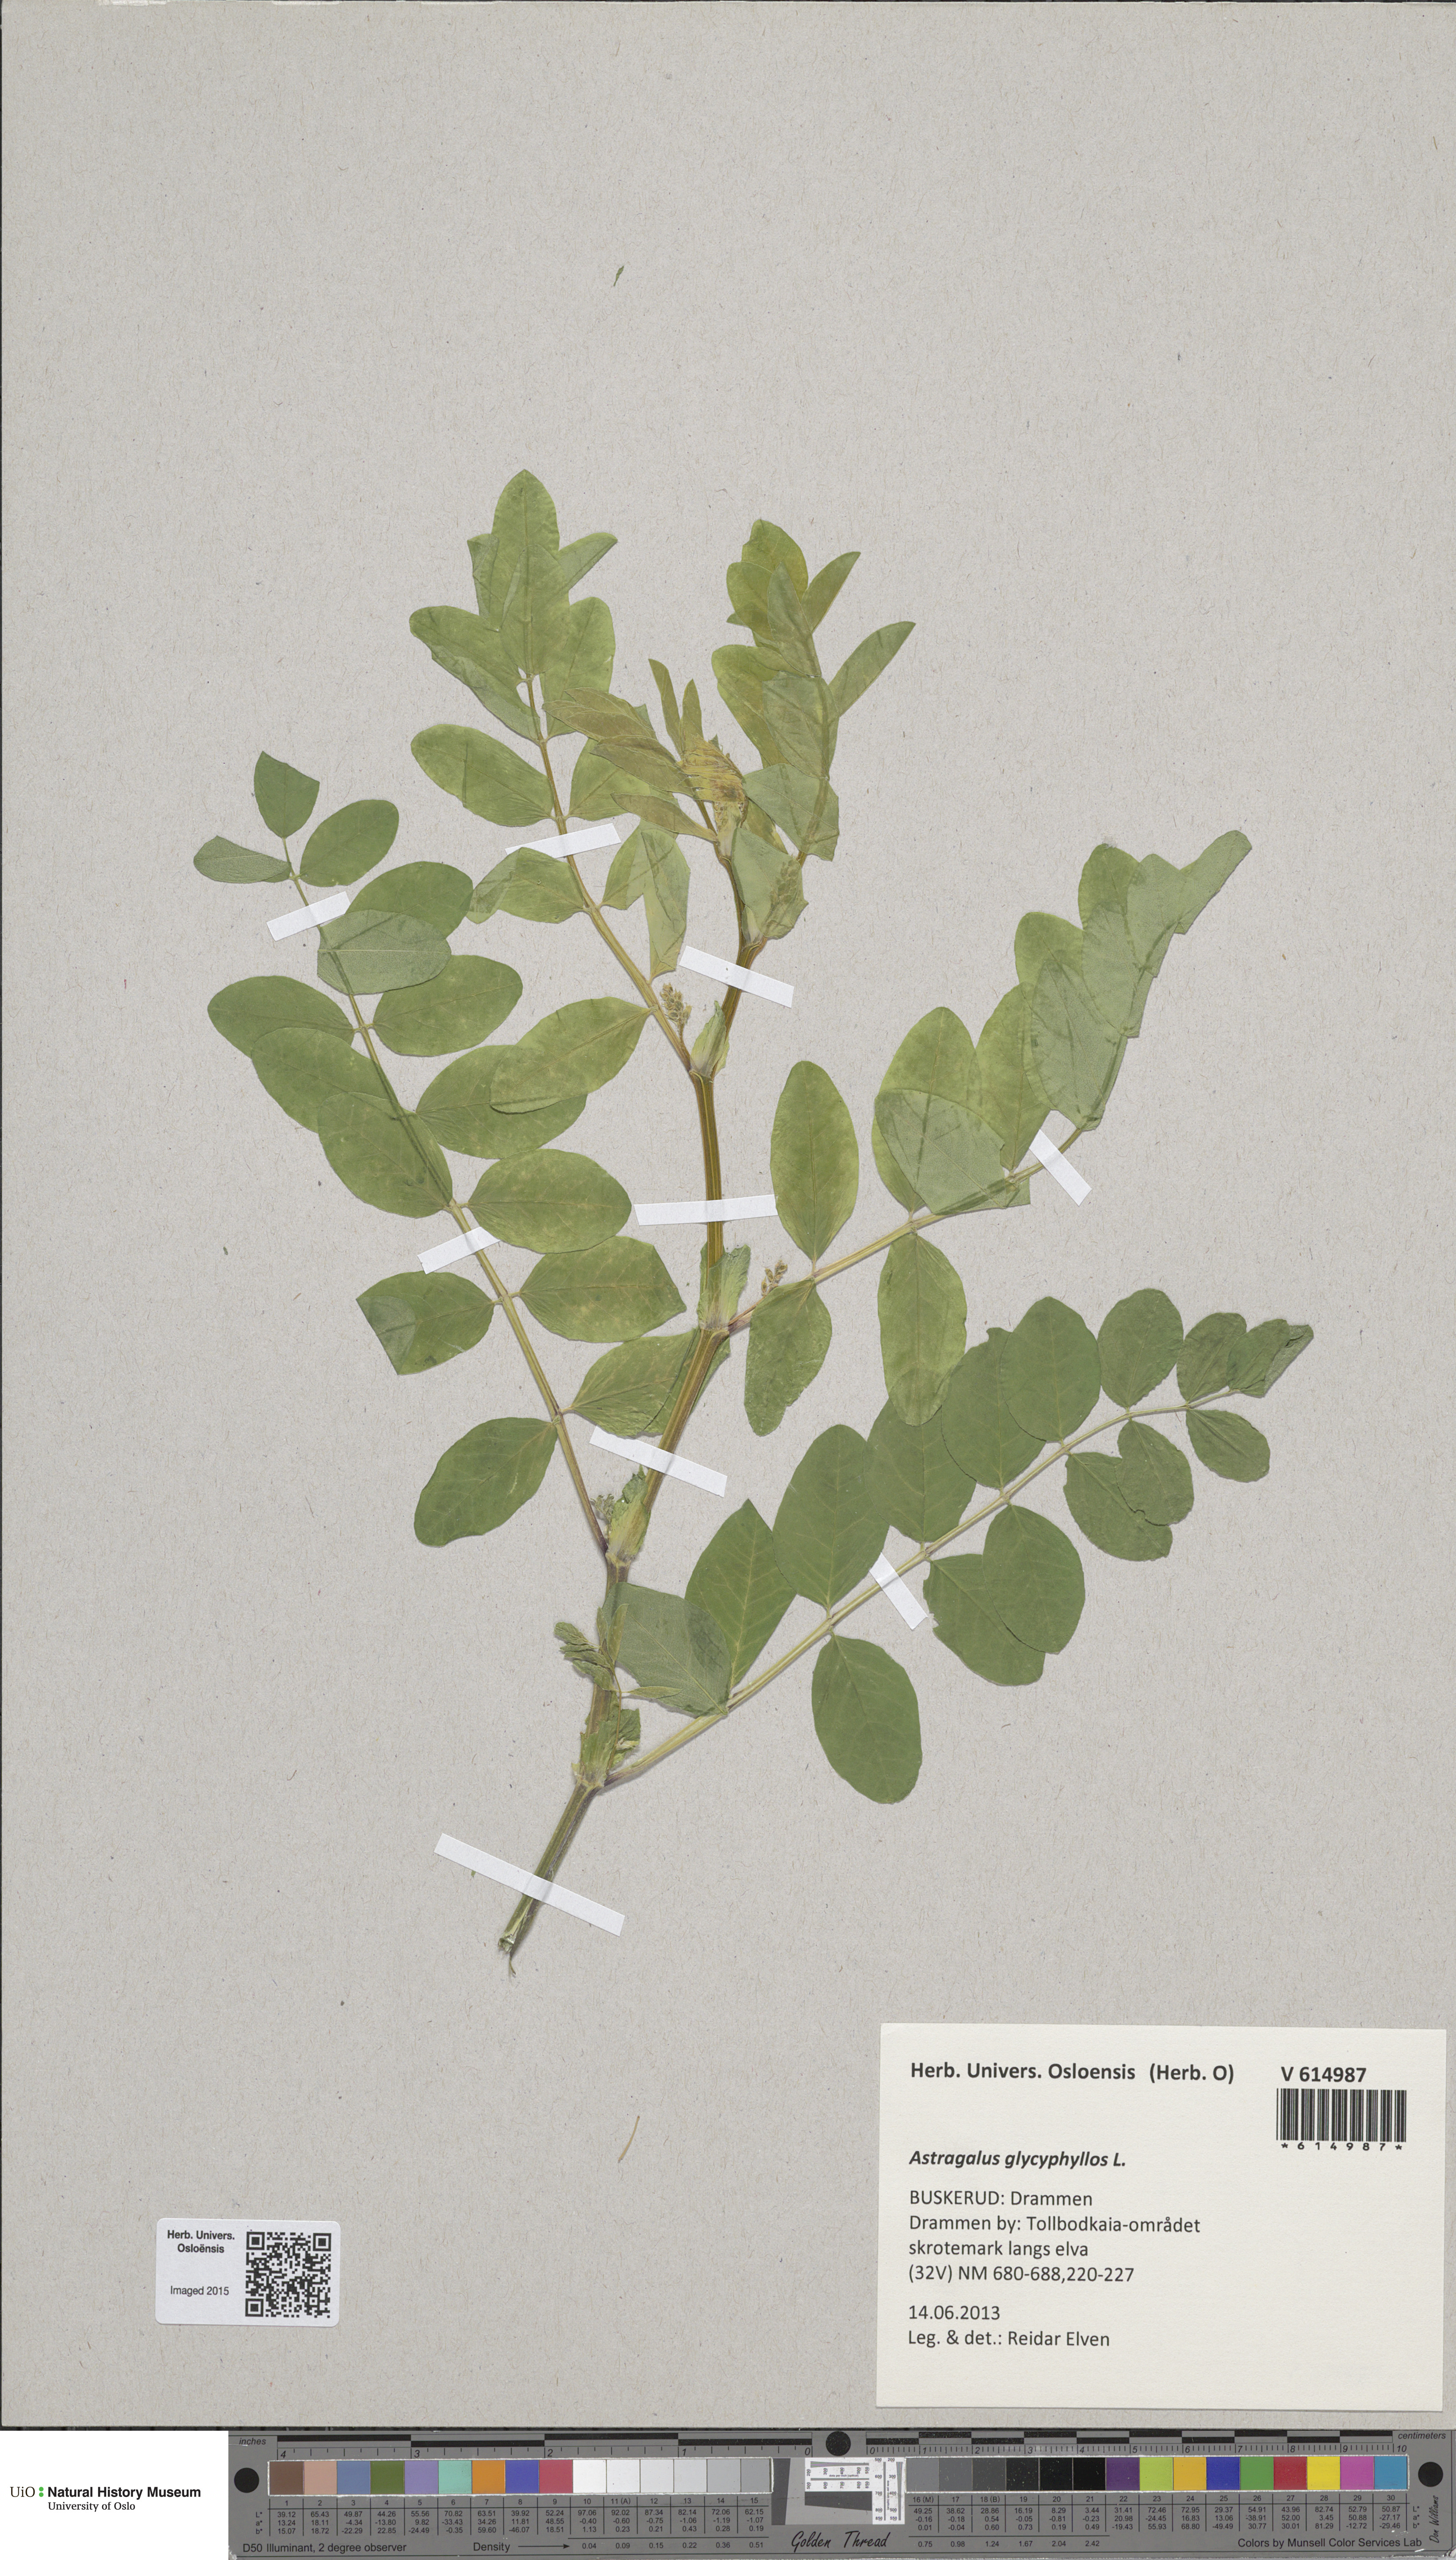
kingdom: Plantae
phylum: Tracheophyta
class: Magnoliopsida
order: Fabales
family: Fabaceae
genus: Astragalus
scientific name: Astragalus glycyphyllos
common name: Wild liquorice
